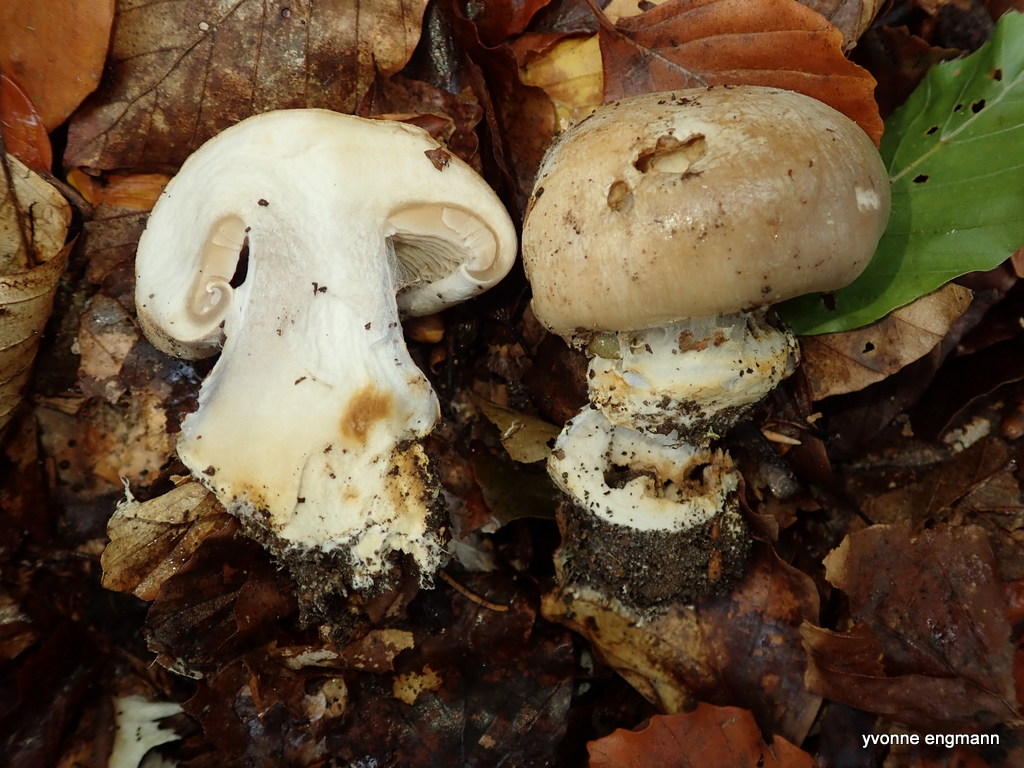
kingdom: Fungi
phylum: Basidiomycota
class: Agaricomycetes
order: Agaricales
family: Cortinariaceae
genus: Cortinarius
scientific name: Cortinarius foetens
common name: stribet slørhat
